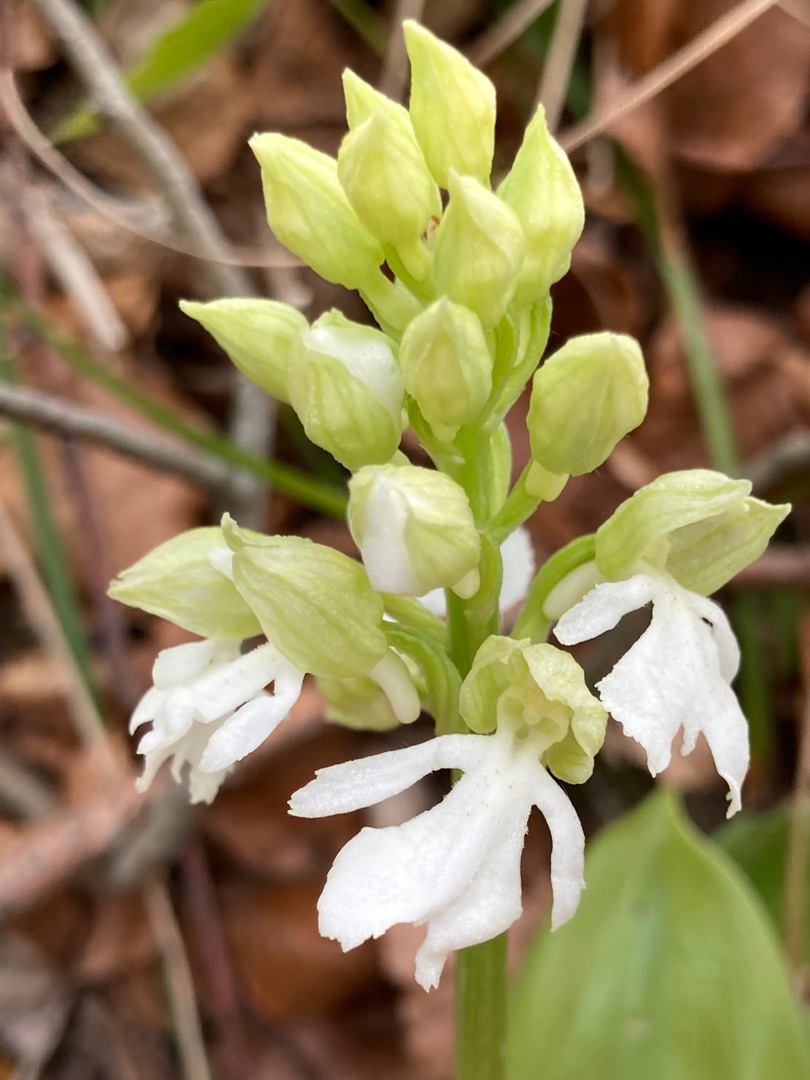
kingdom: Plantae
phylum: Tracheophyta
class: Liliopsida
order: Asparagales
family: Orchidaceae
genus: Orchis
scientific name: Orchis purpurea
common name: Stor gøgeurt
